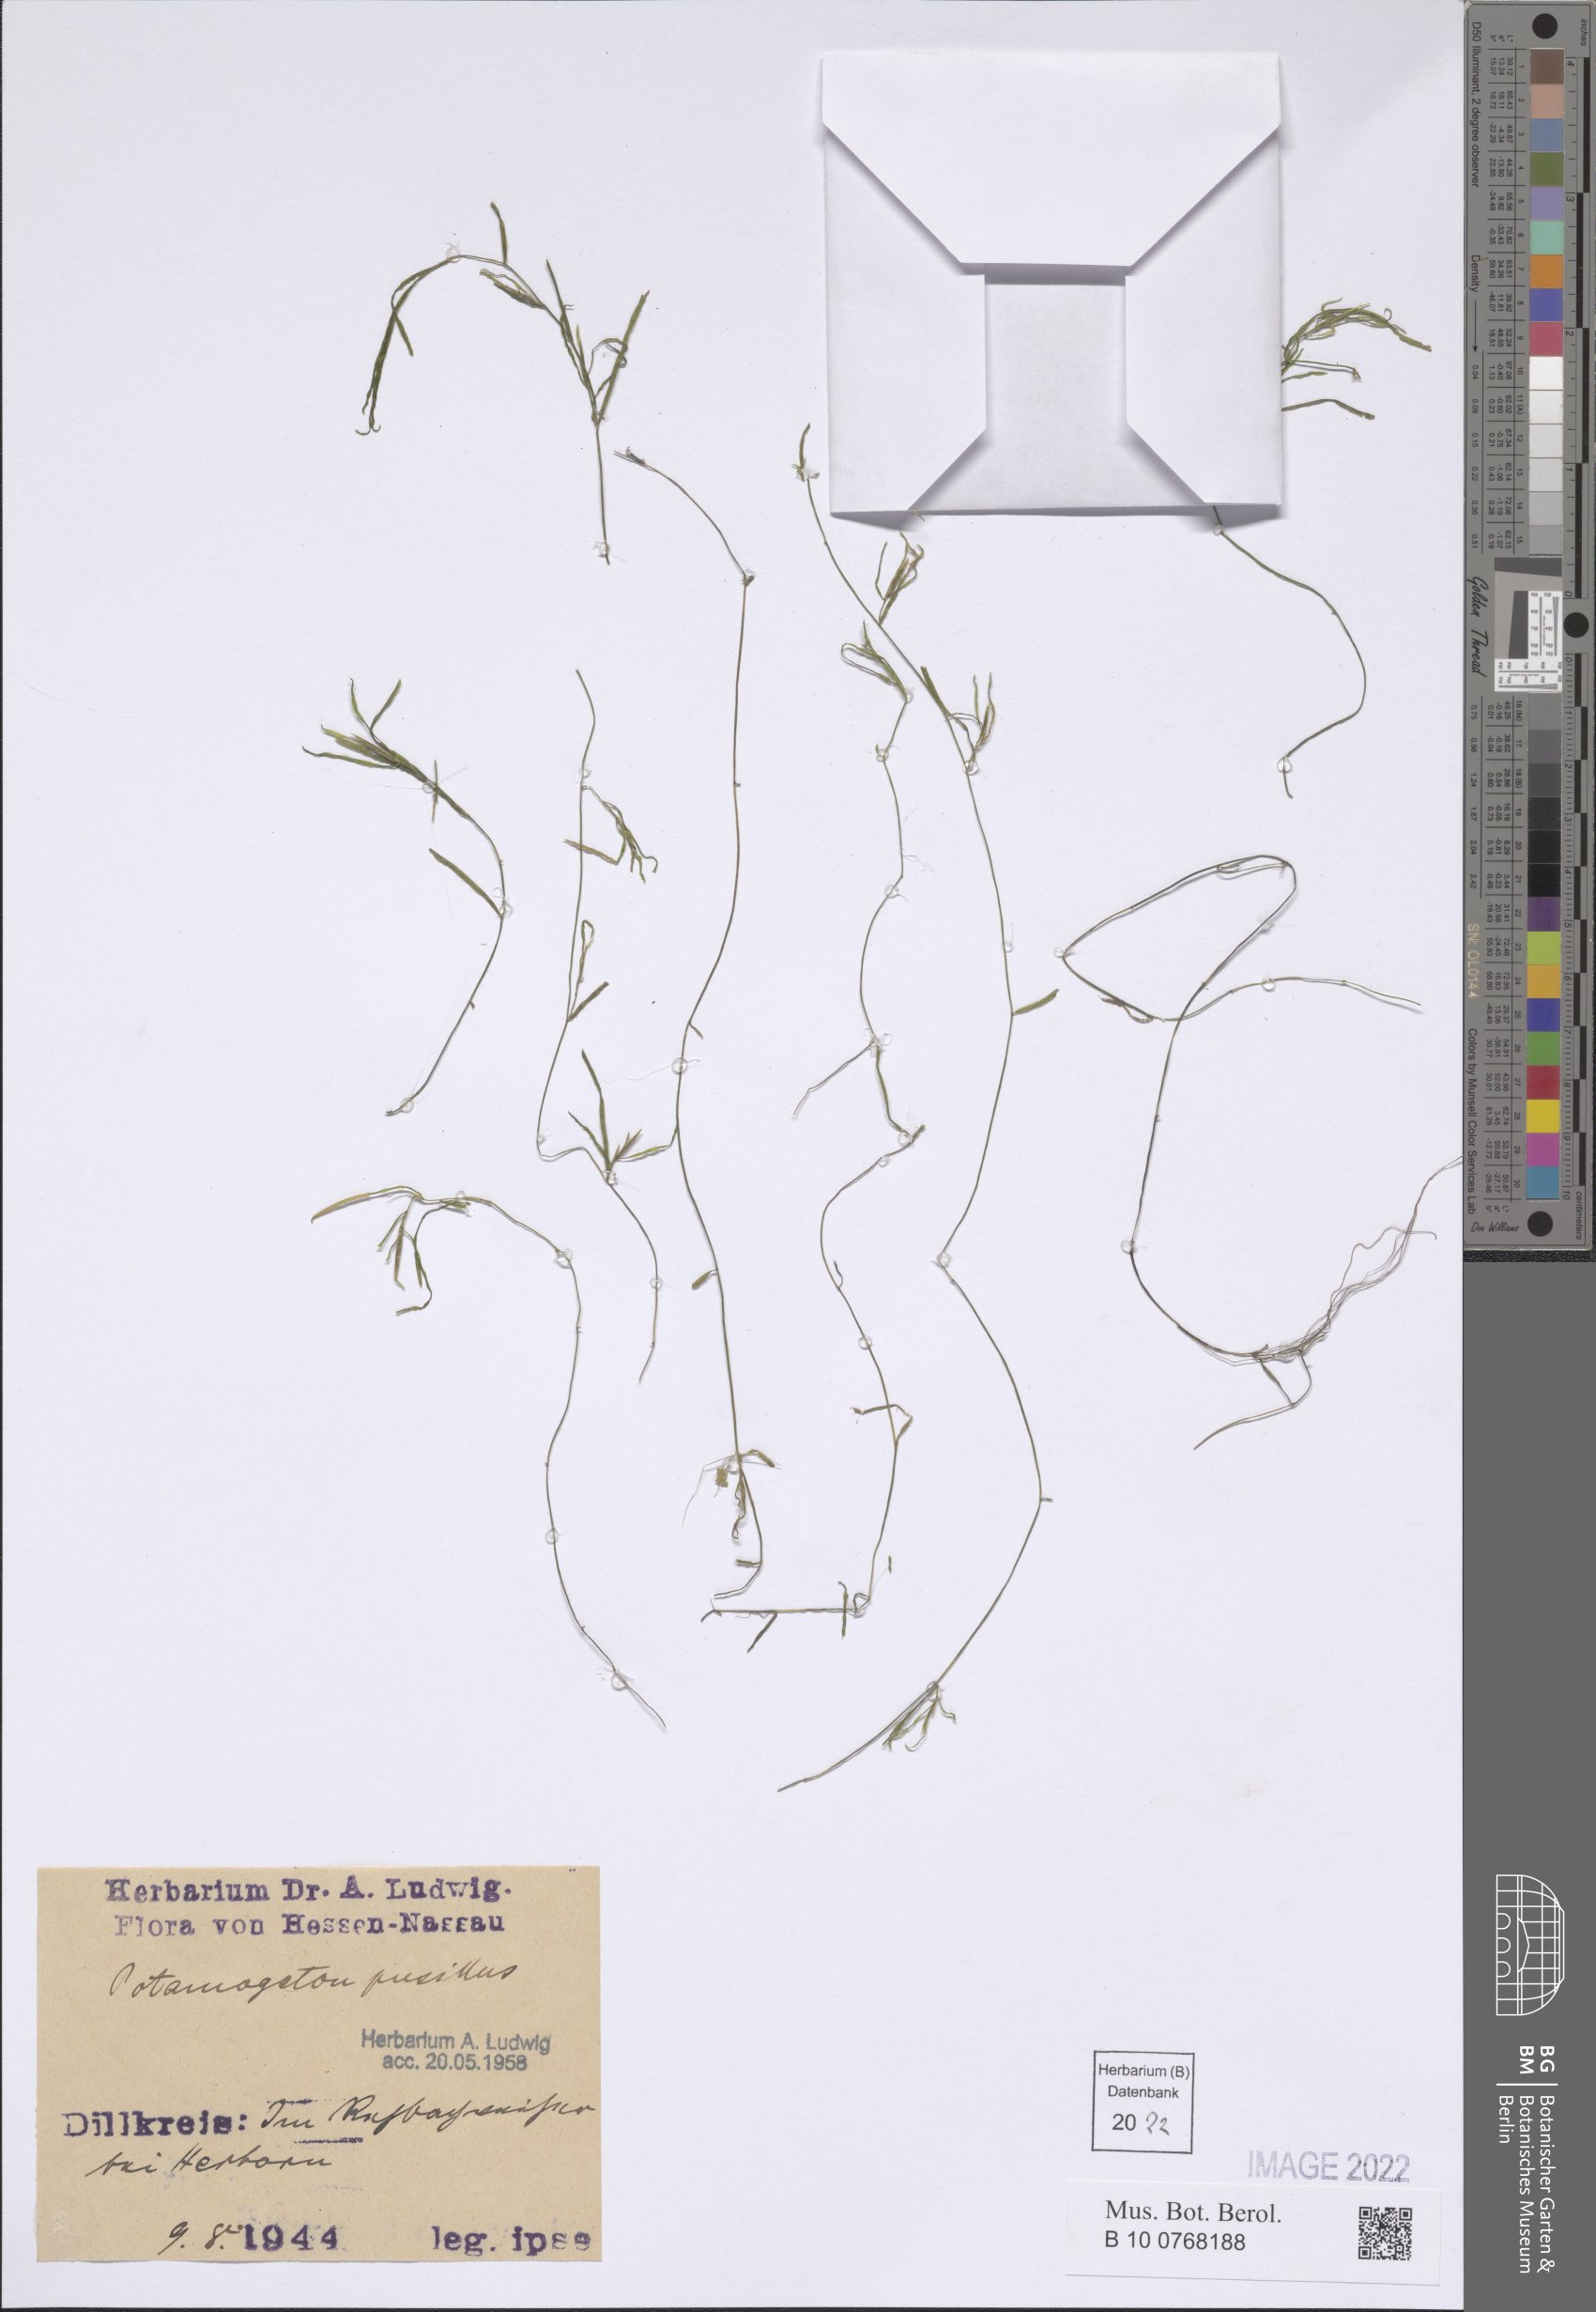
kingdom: Plantae
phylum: Tracheophyta
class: Liliopsida
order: Alismatales
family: Potamogetonaceae
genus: Potamogeton
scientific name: Potamogeton pusillus
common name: Lesser pondweed
